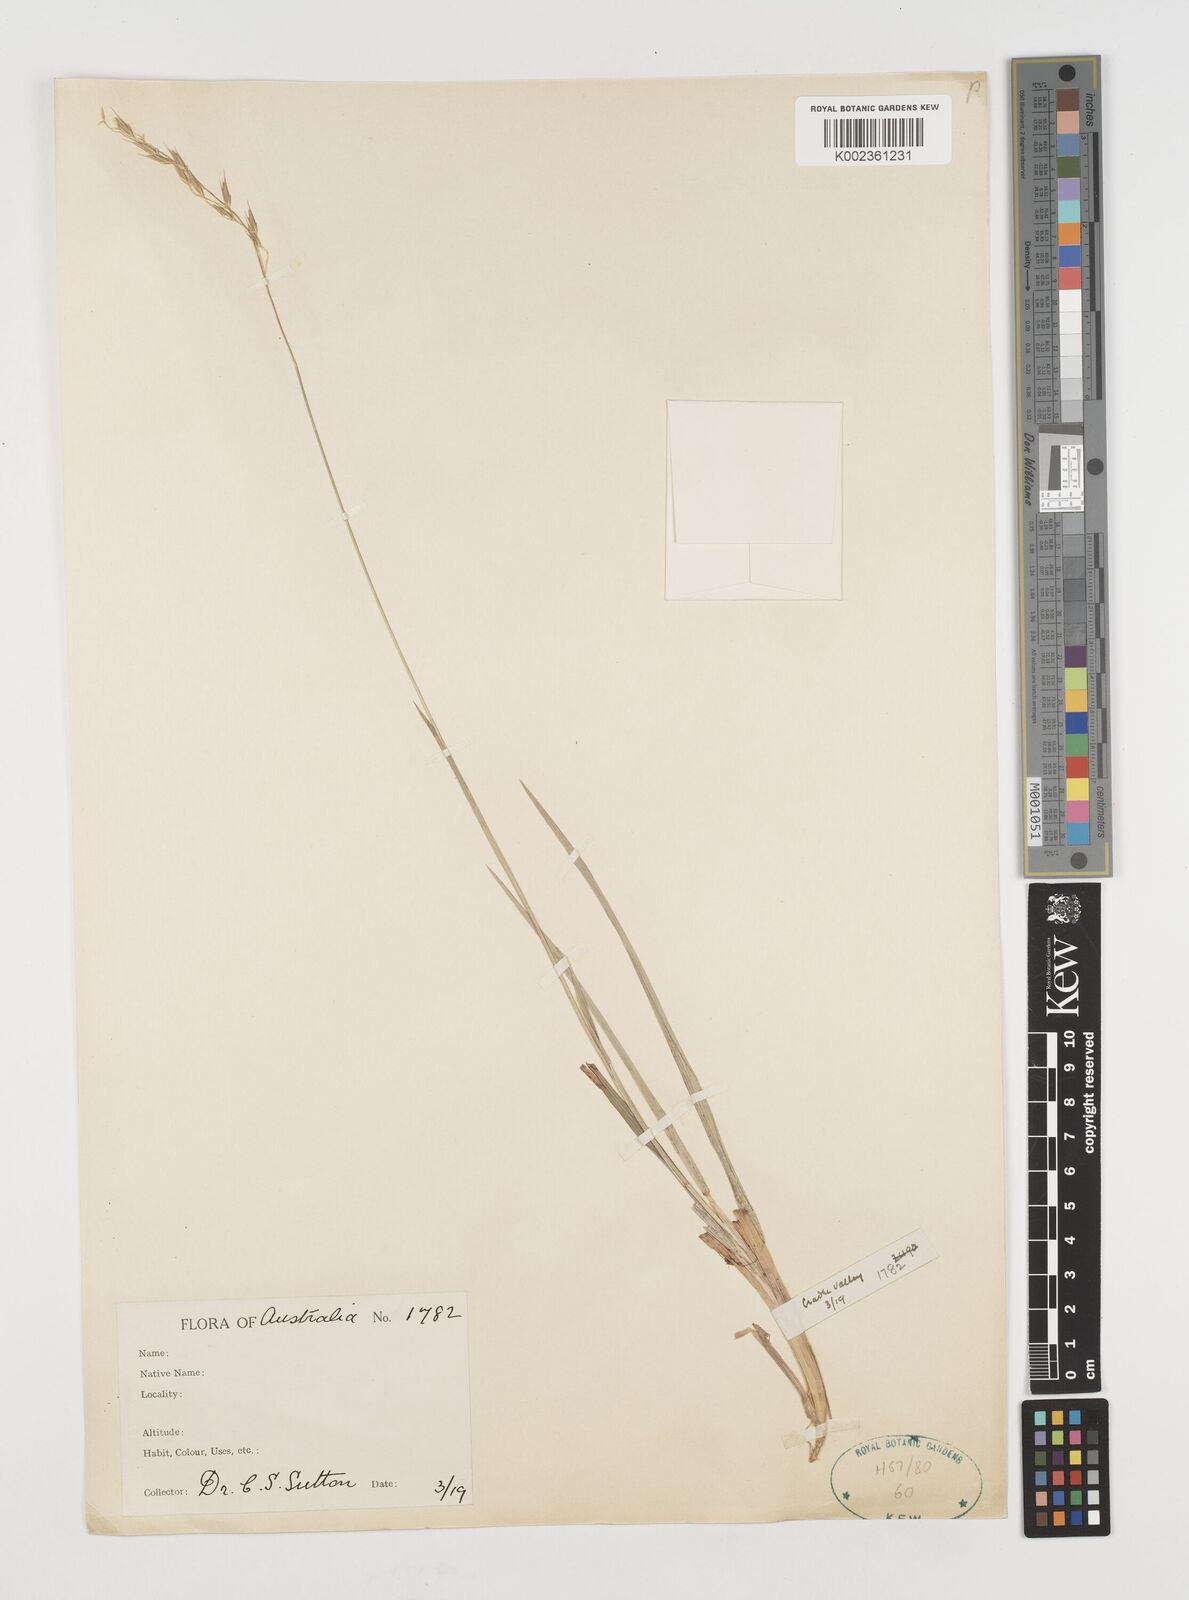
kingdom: Plantae
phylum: Tracheophyta
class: Liliopsida
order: Poales
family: Poaceae
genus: Microlaena
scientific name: Microlaena tasmanica
